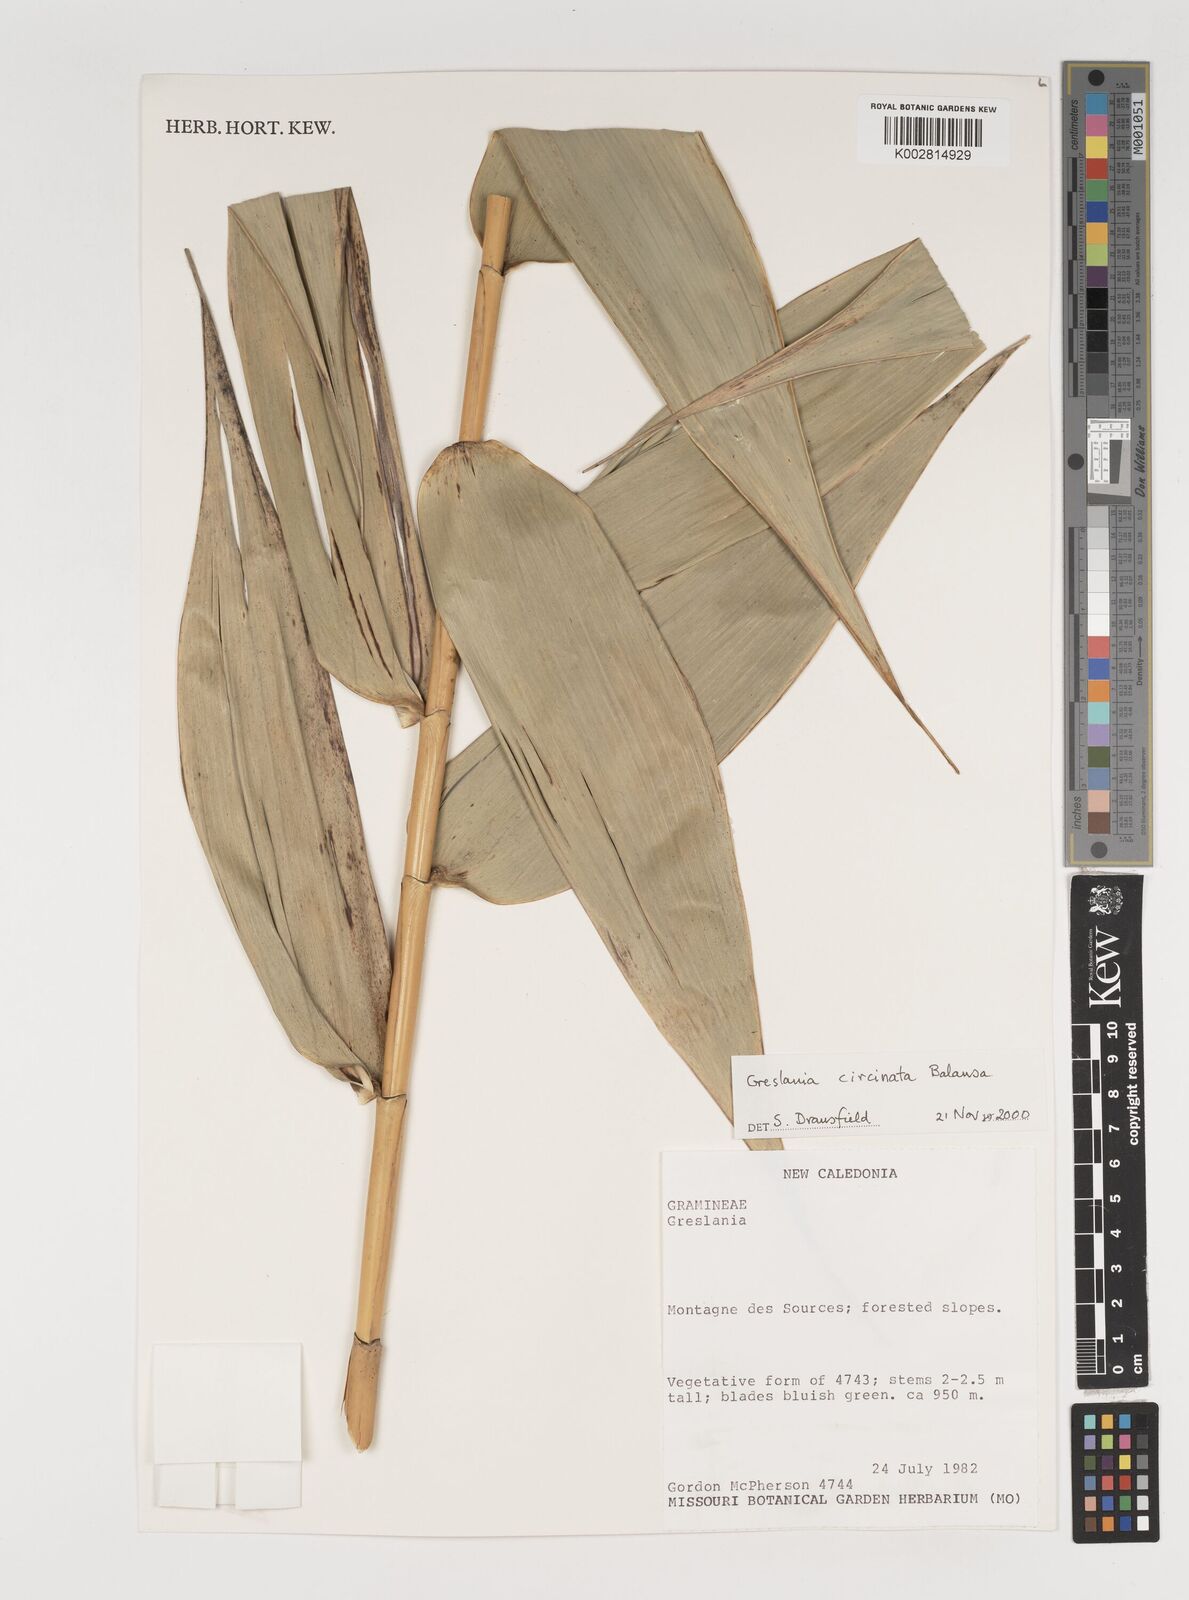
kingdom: Plantae
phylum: Tracheophyta
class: Liliopsida
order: Poales
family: Poaceae
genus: Greslania
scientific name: Greslania
